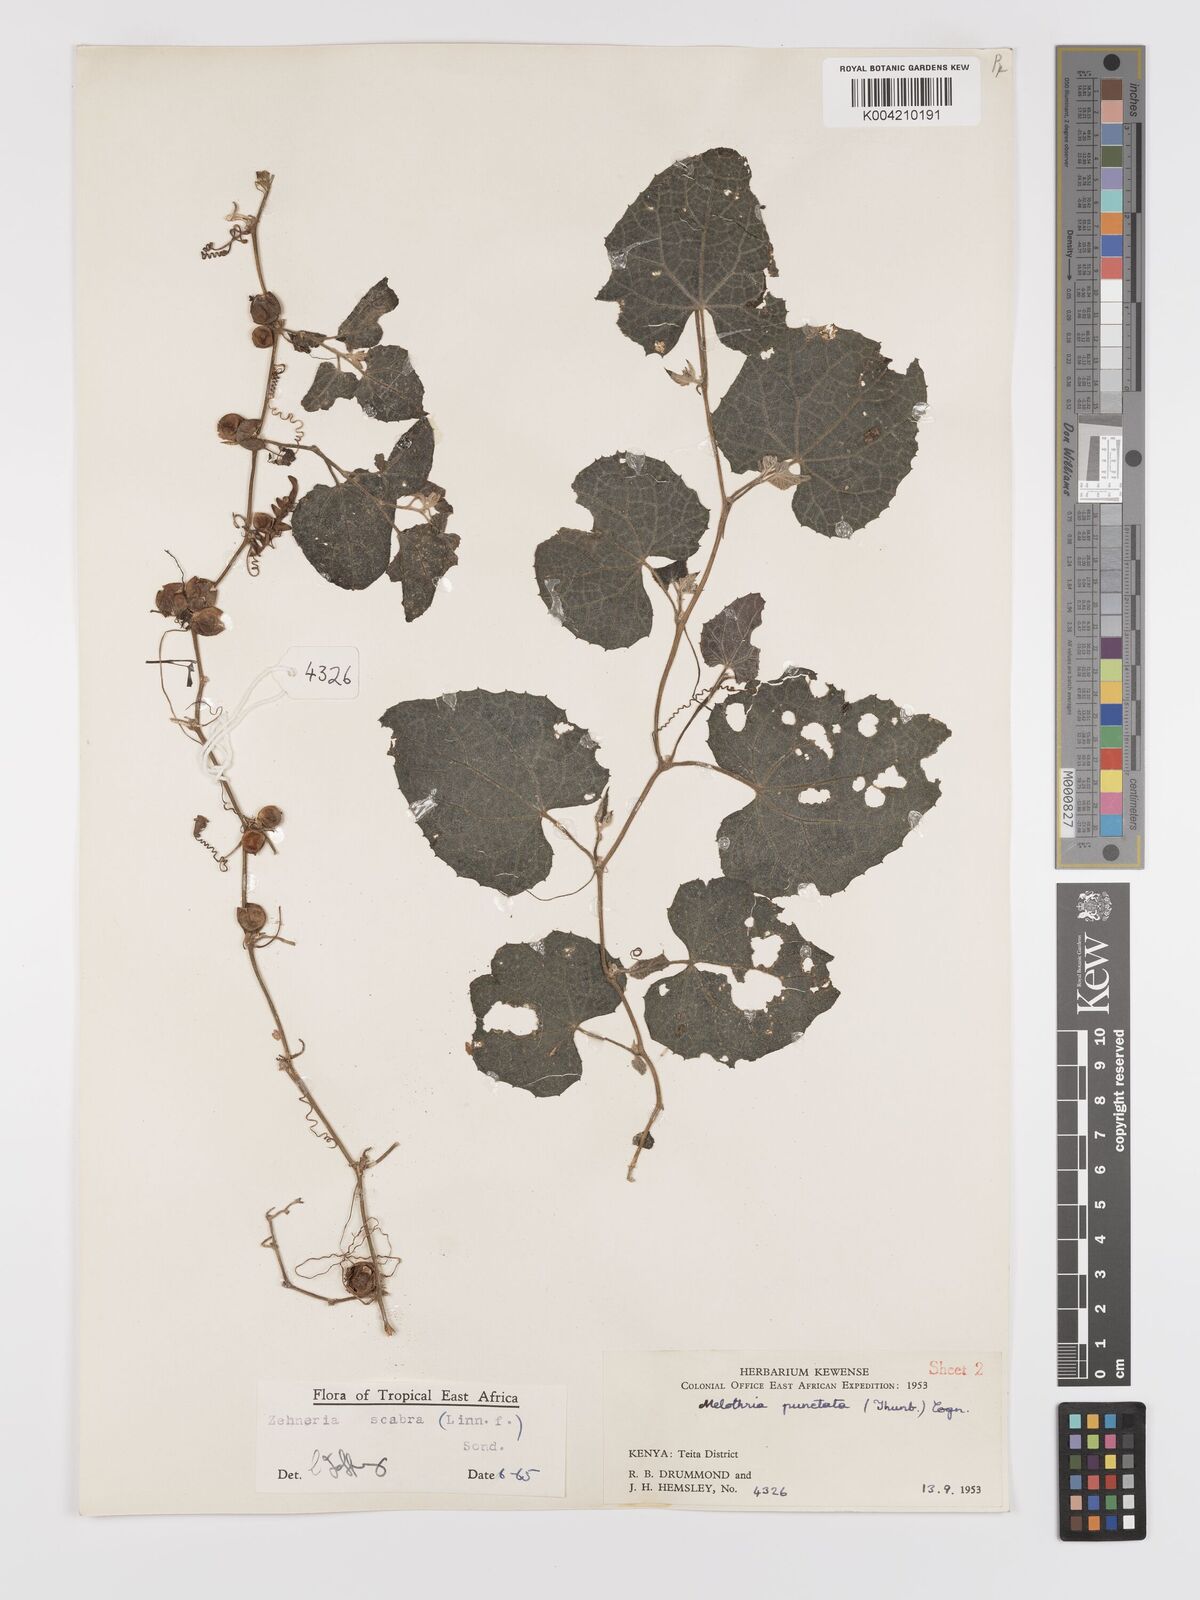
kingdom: Plantae
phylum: Tracheophyta
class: Magnoliopsida
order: Cucurbitales
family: Cucurbitaceae
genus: Zehneria
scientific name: Zehneria scabra
